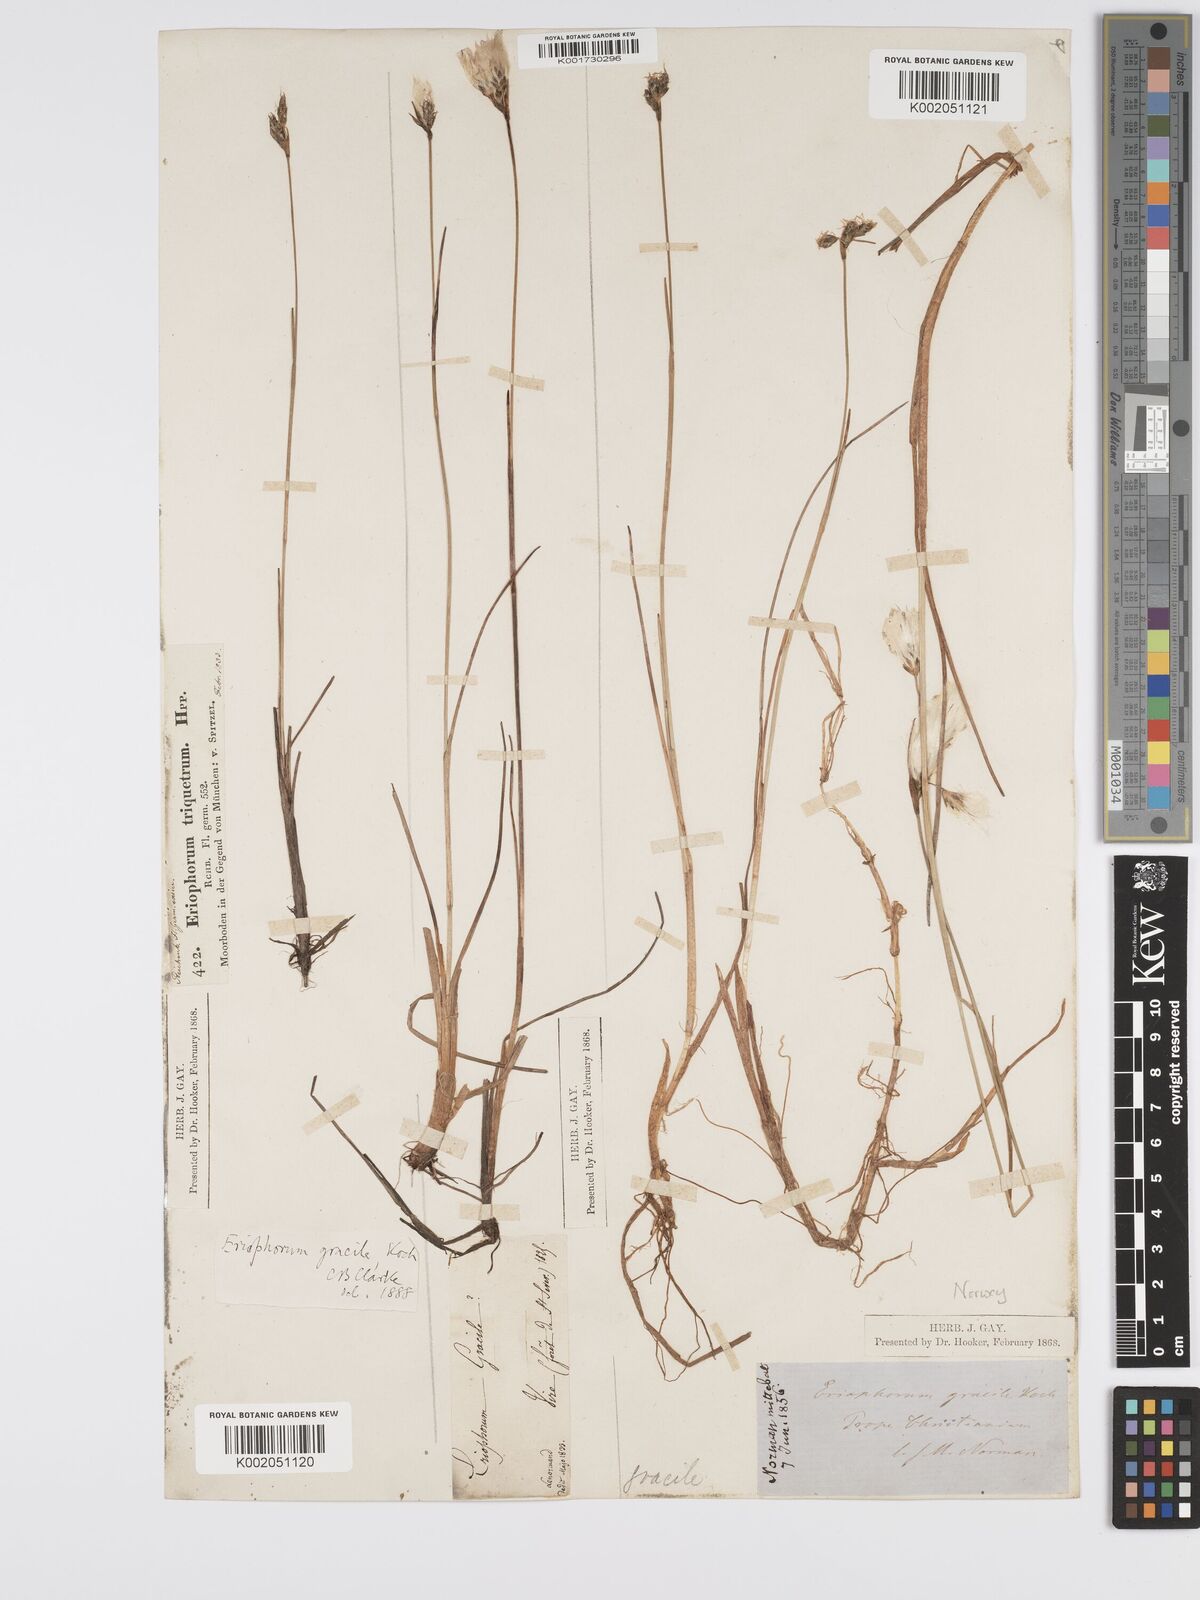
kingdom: Plantae
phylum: Tracheophyta
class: Liliopsida
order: Poales
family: Cyperaceae
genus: Eriophorum
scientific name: Eriophorum gracile
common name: Slender cottongrass
